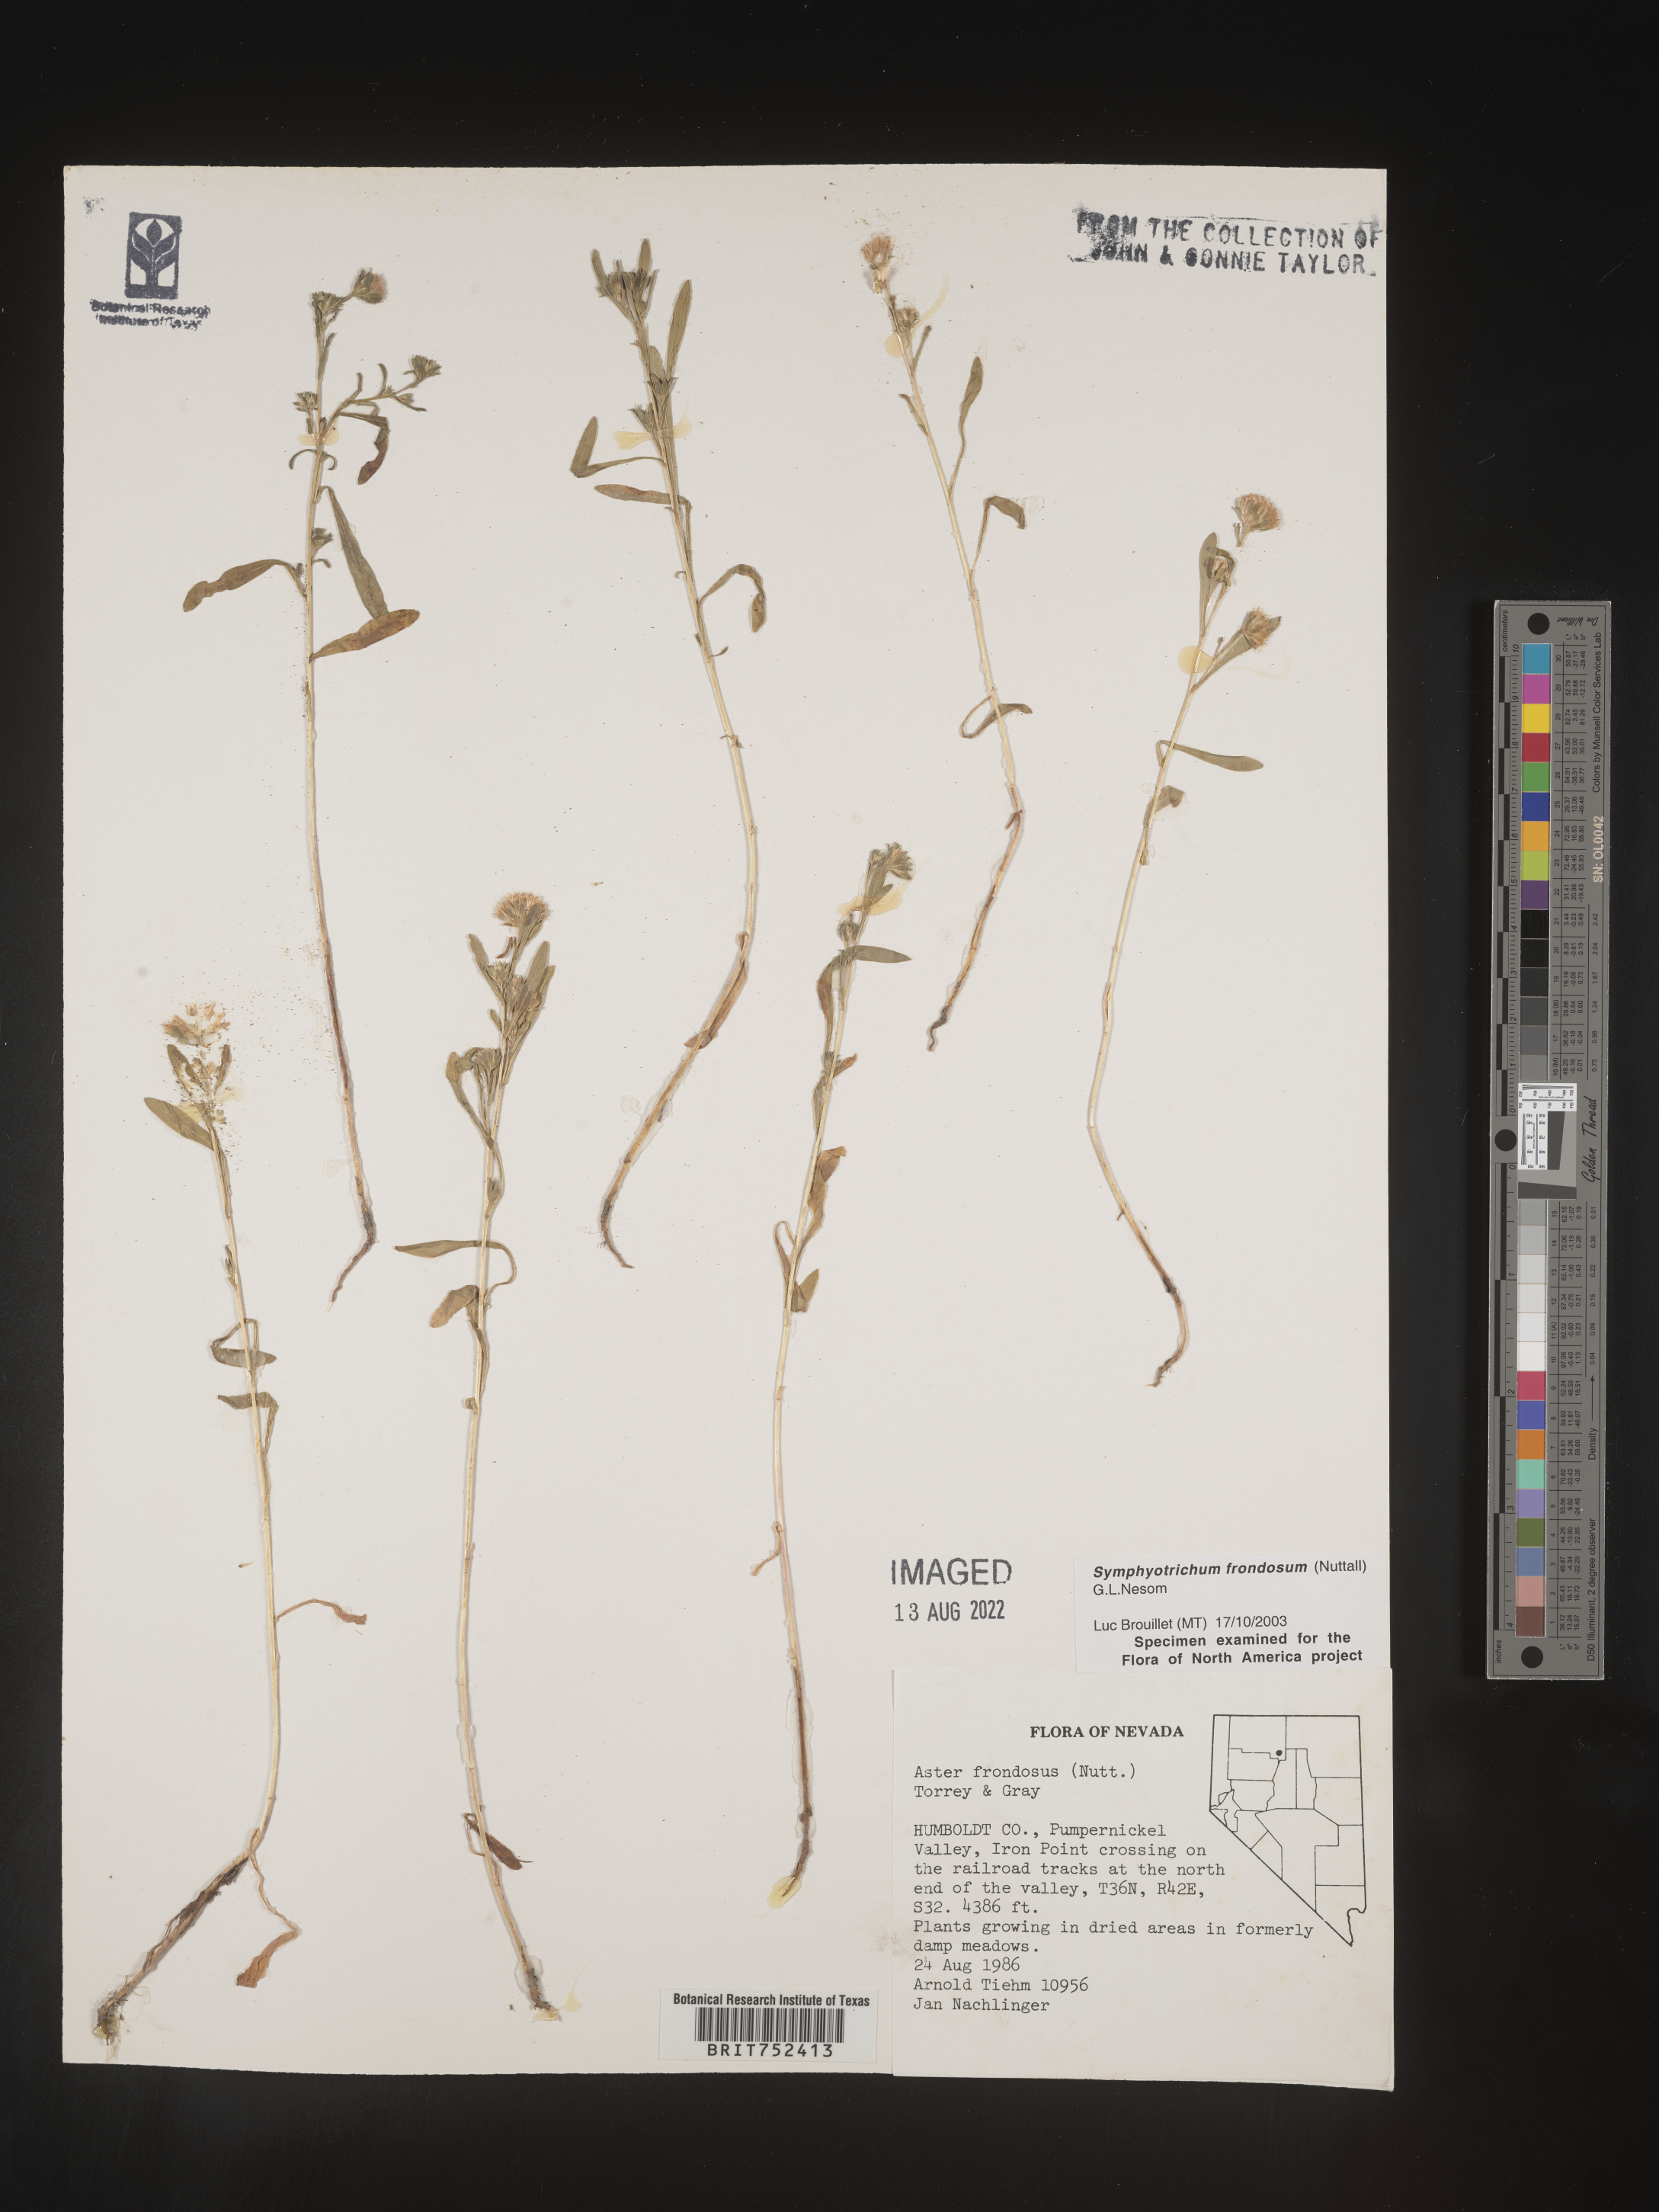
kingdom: Plantae
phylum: Tracheophyta
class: Magnoliopsida
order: Asterales
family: Asteraceae
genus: Symphyotrichum
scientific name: Symphyotrichum frondosum
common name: Leafy aster
